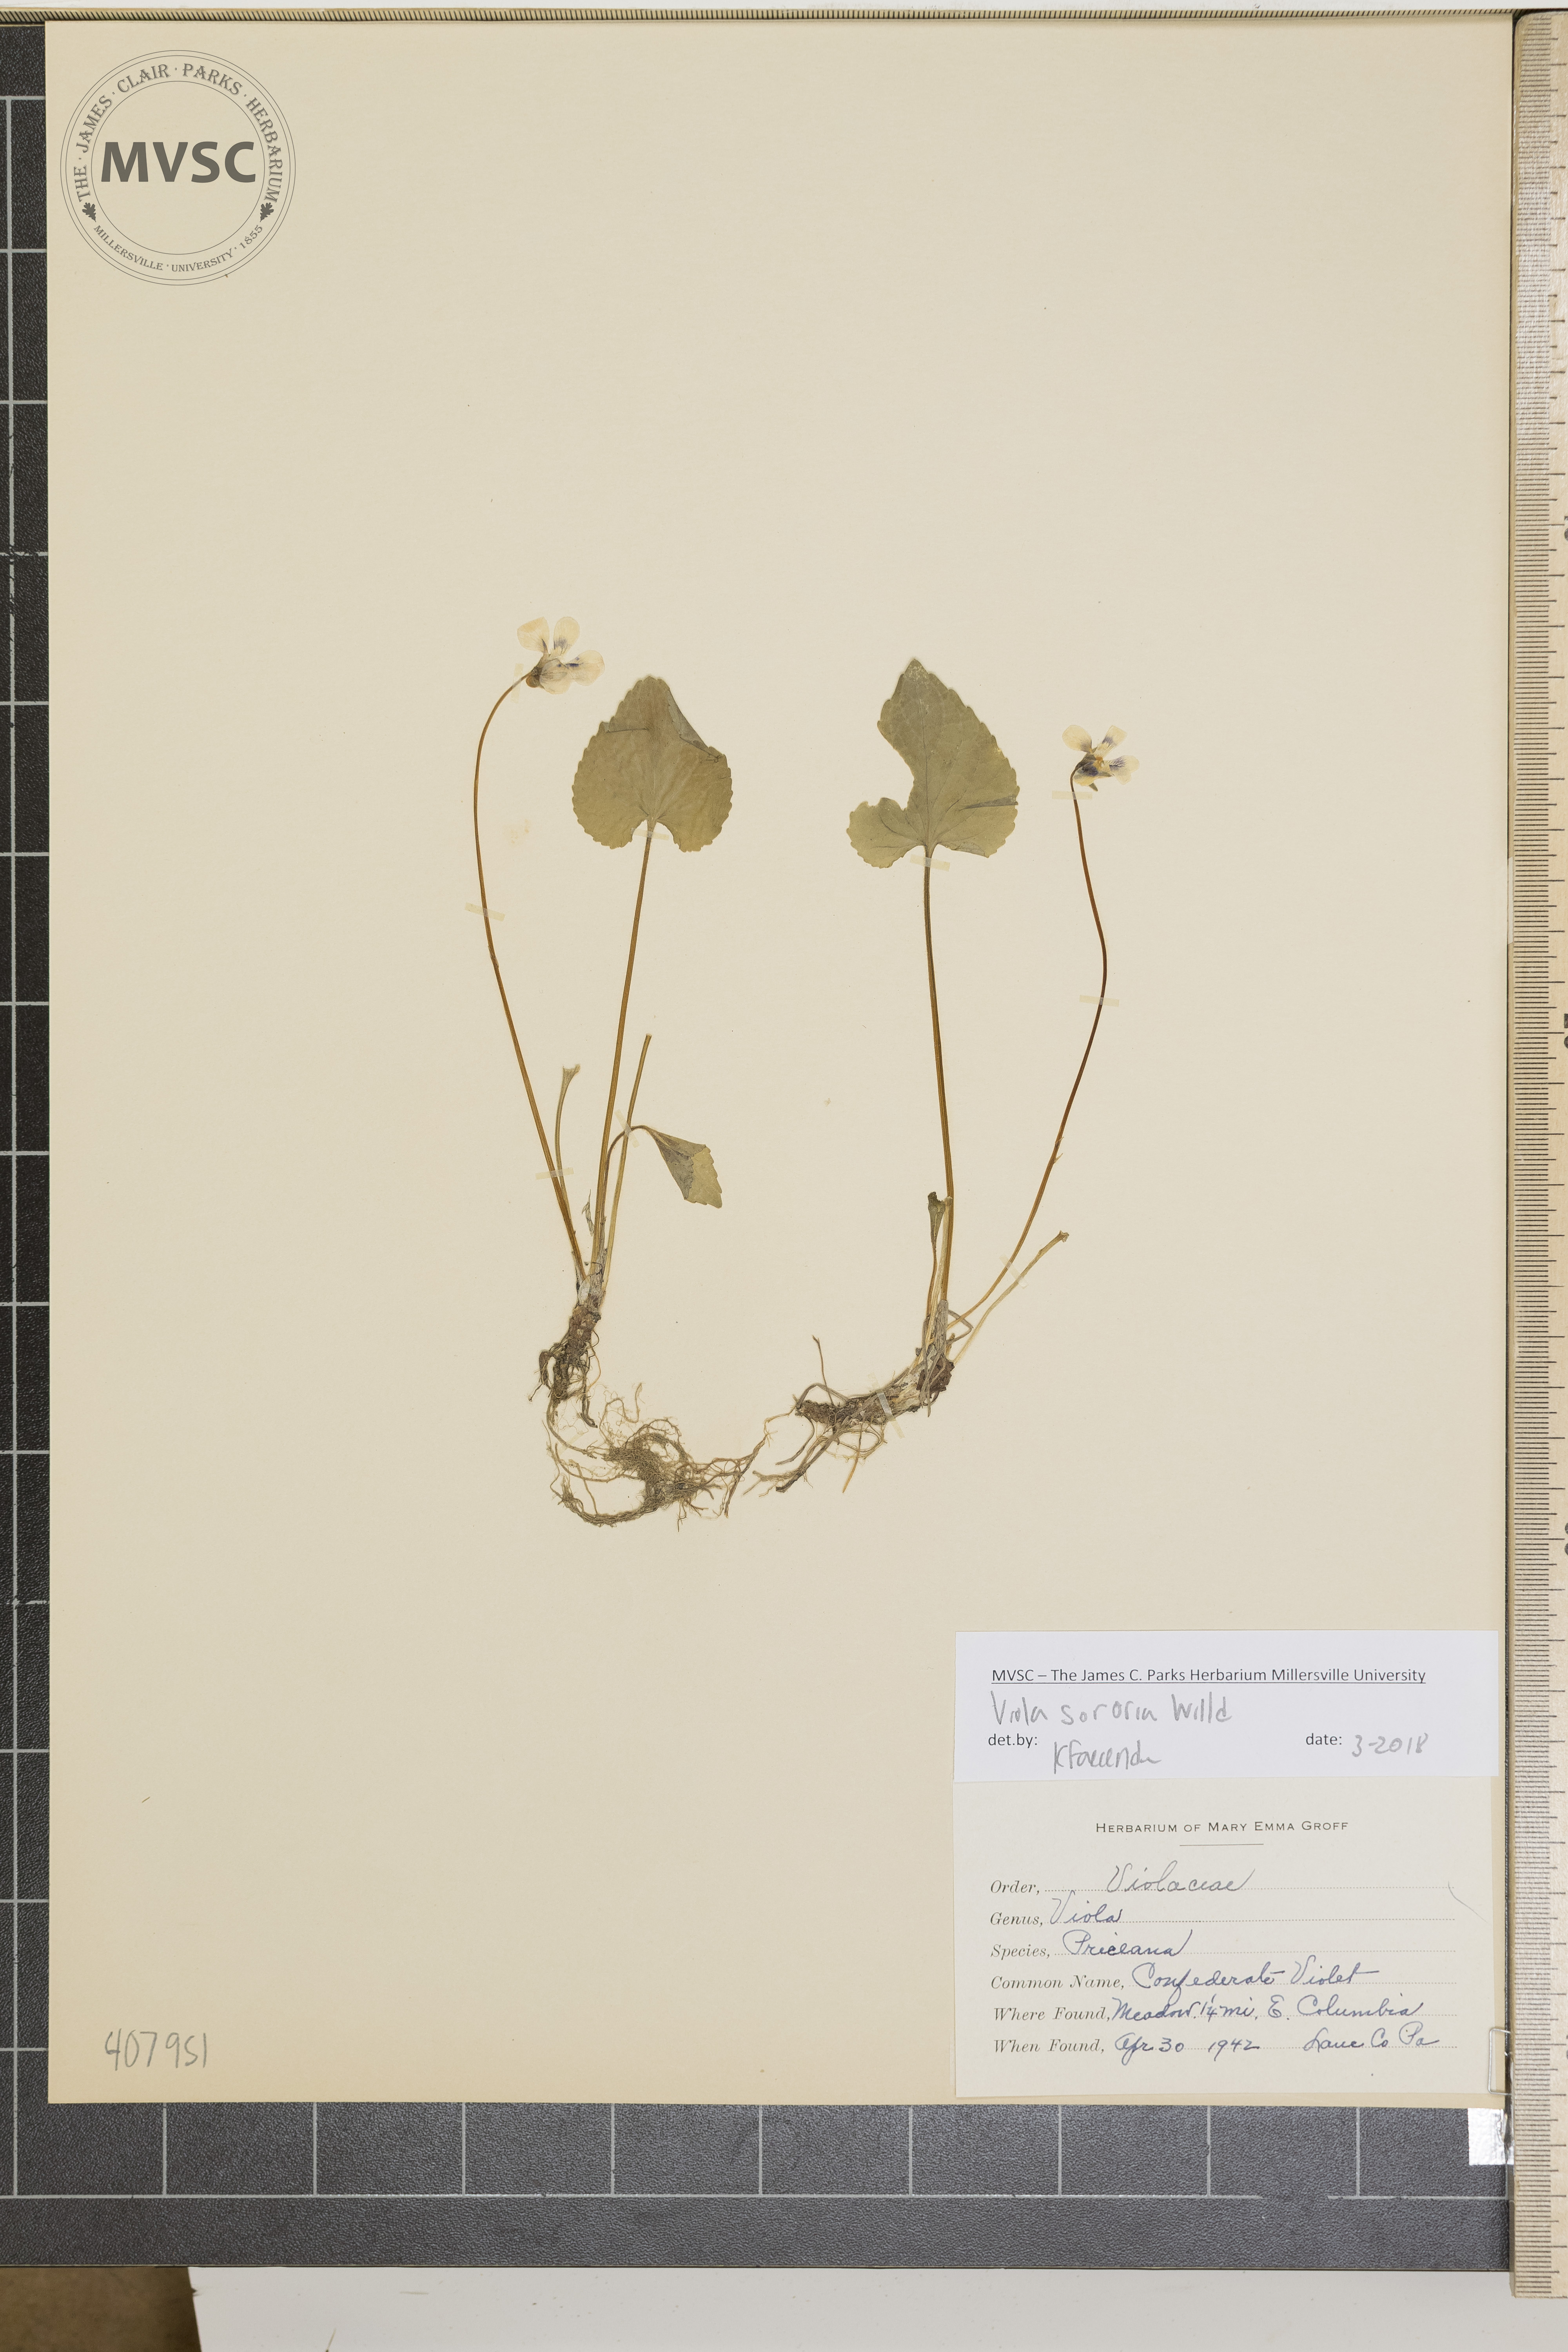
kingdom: Plantae
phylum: Tracheophyta
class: Magnoliopsida
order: Malpighiales
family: Violaceae
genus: Viola
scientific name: Viola sororia
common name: Confederate Violet
